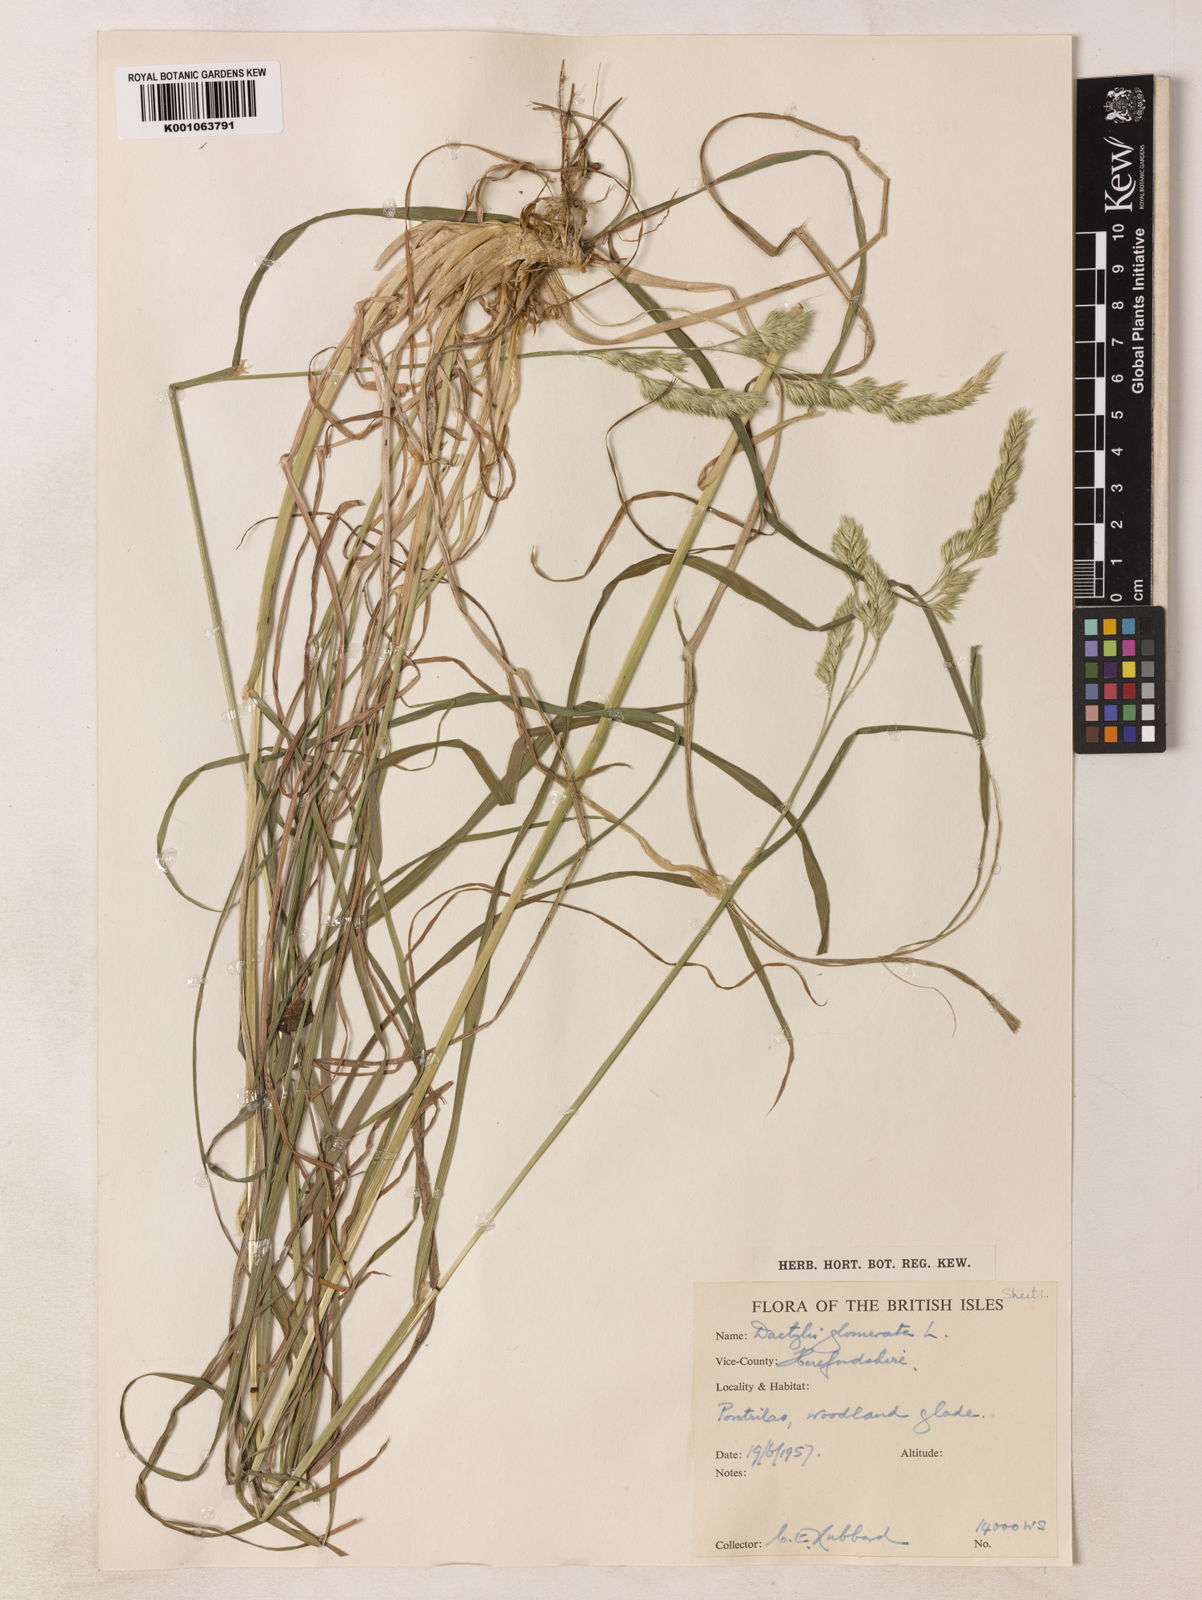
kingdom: Plantae
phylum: Tracheophyta
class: Liliopsida
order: Poales
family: Poaceae
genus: Dactylis
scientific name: Dactylis glomerata
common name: Orchardgrass
